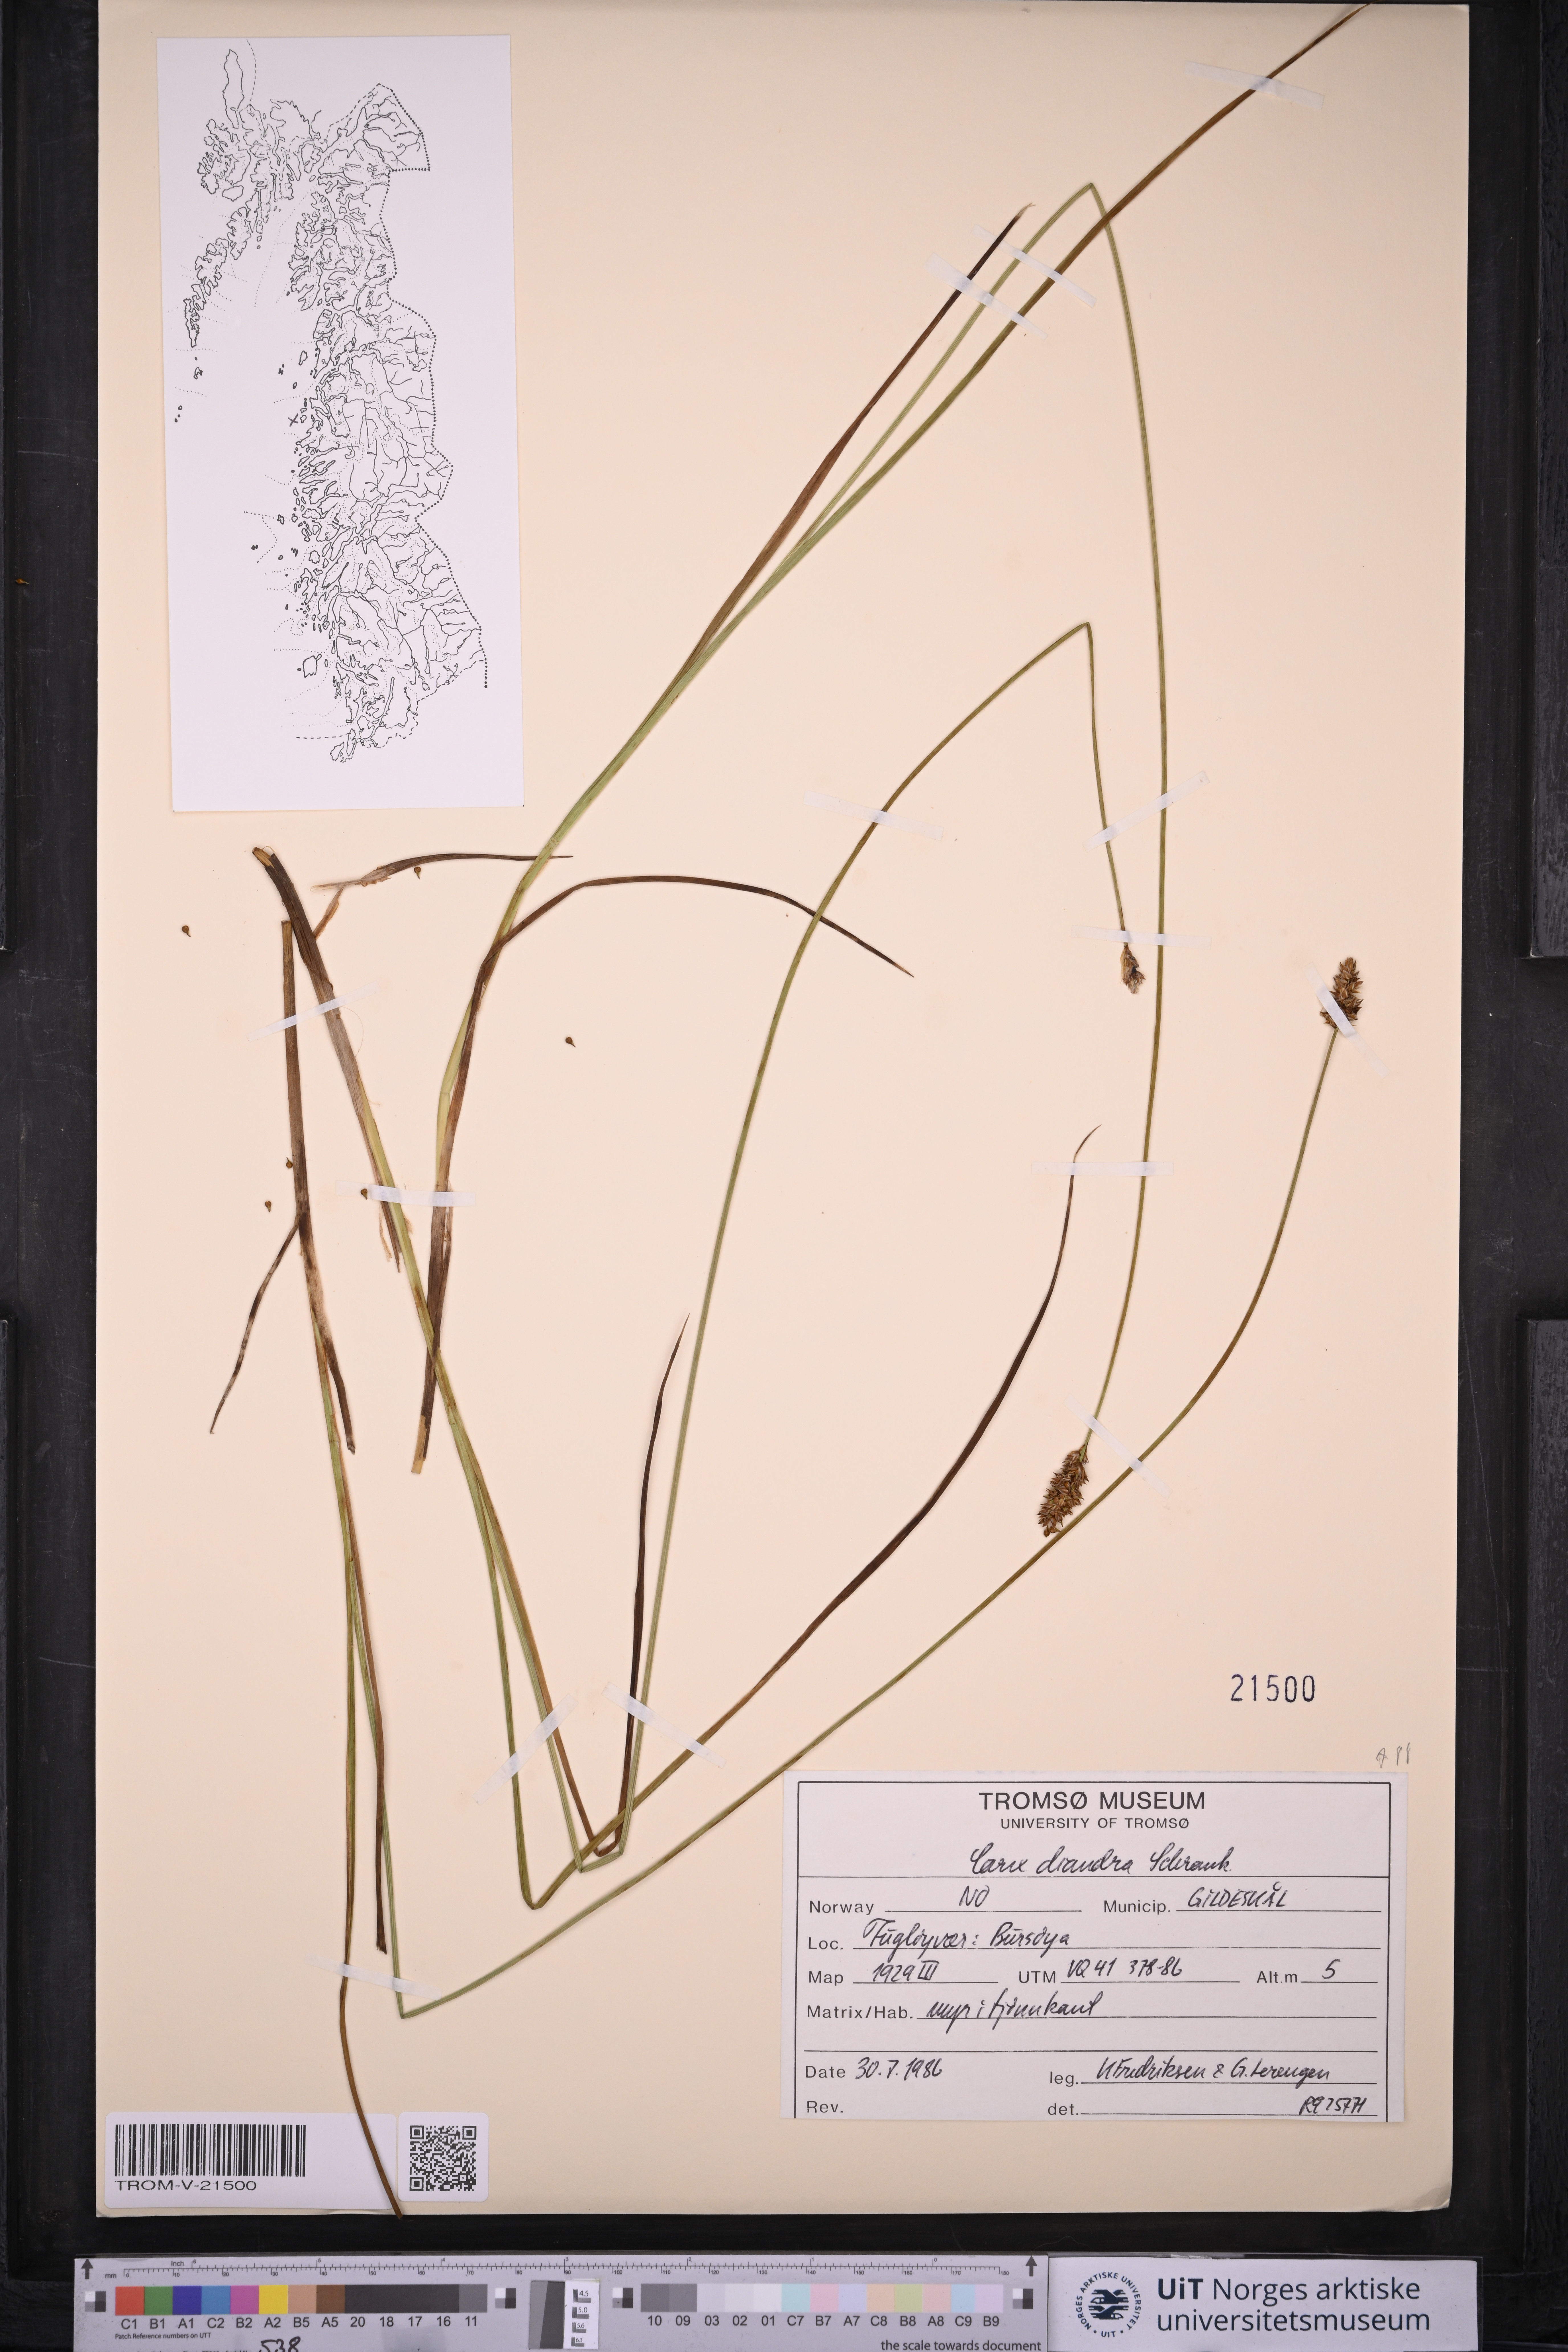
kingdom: Plantae
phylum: Tracheophyta
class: Liliopsida
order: Poales
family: Cyperaceae
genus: Carex
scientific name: Carex diandra
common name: Lesser tussock-sedge
